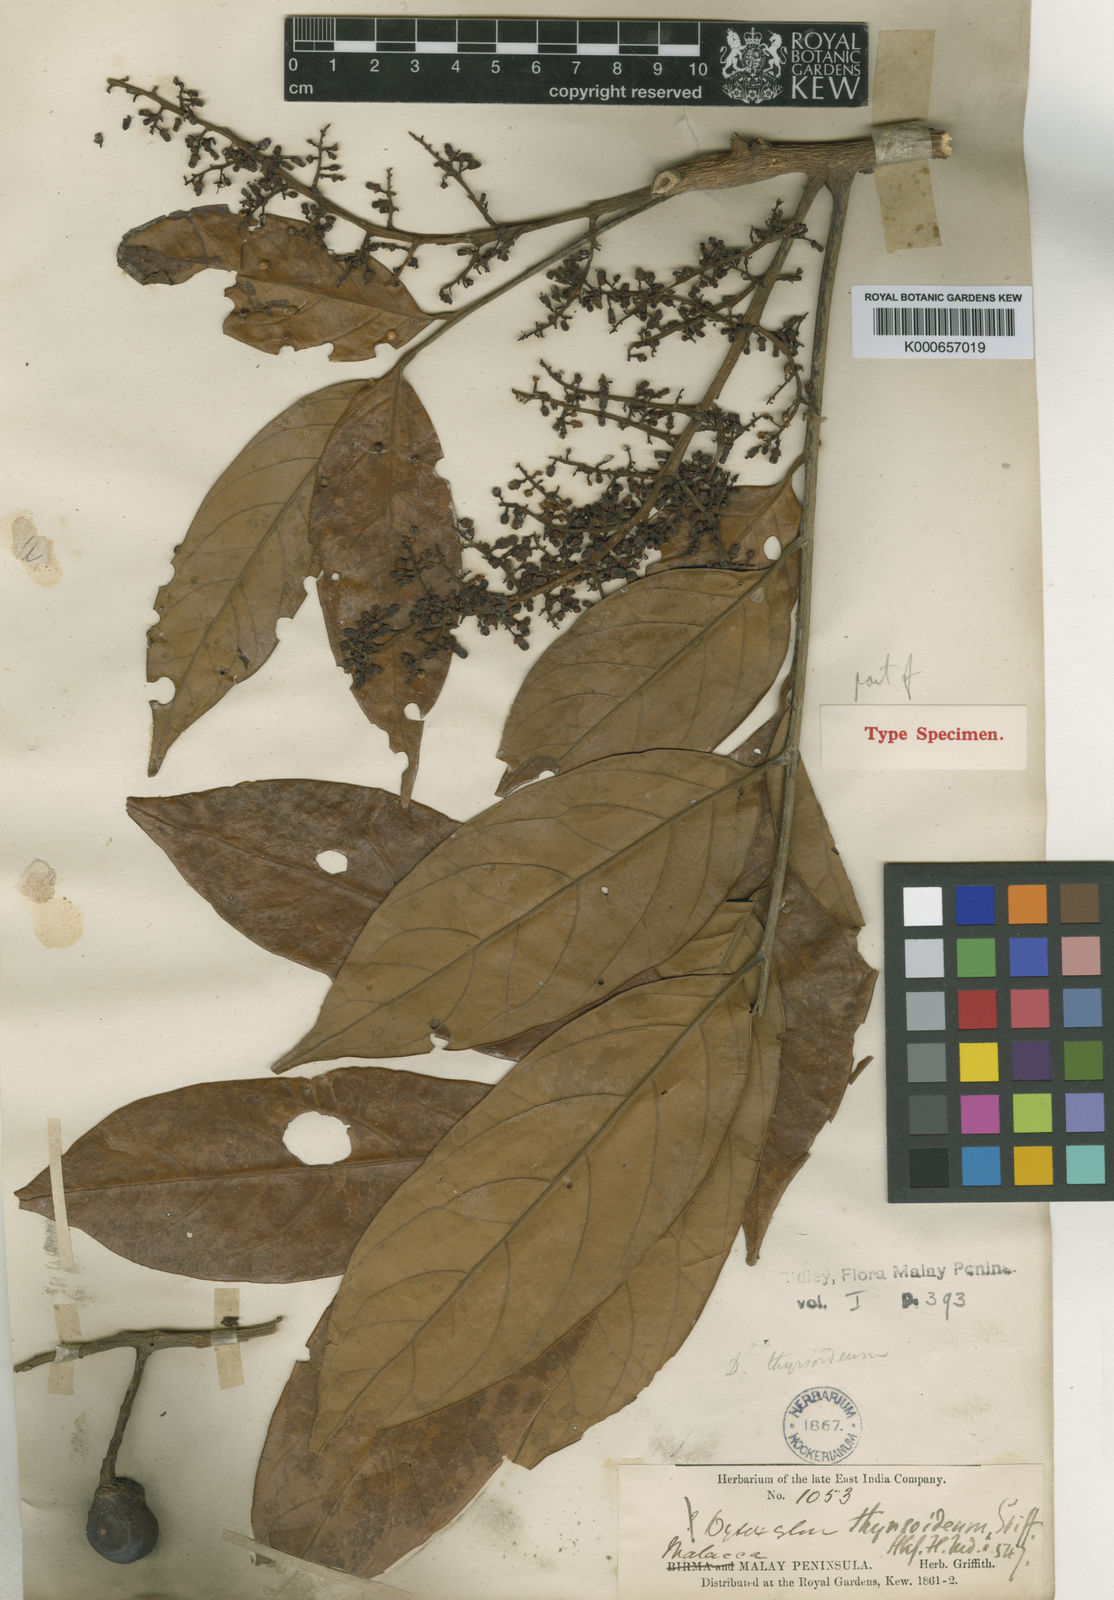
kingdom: Plantae
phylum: Tracheophyta
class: Magnoliopsida
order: Sapindales
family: Meliaceae
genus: Prasoxylon
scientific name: Prasoxylon alliaceum
